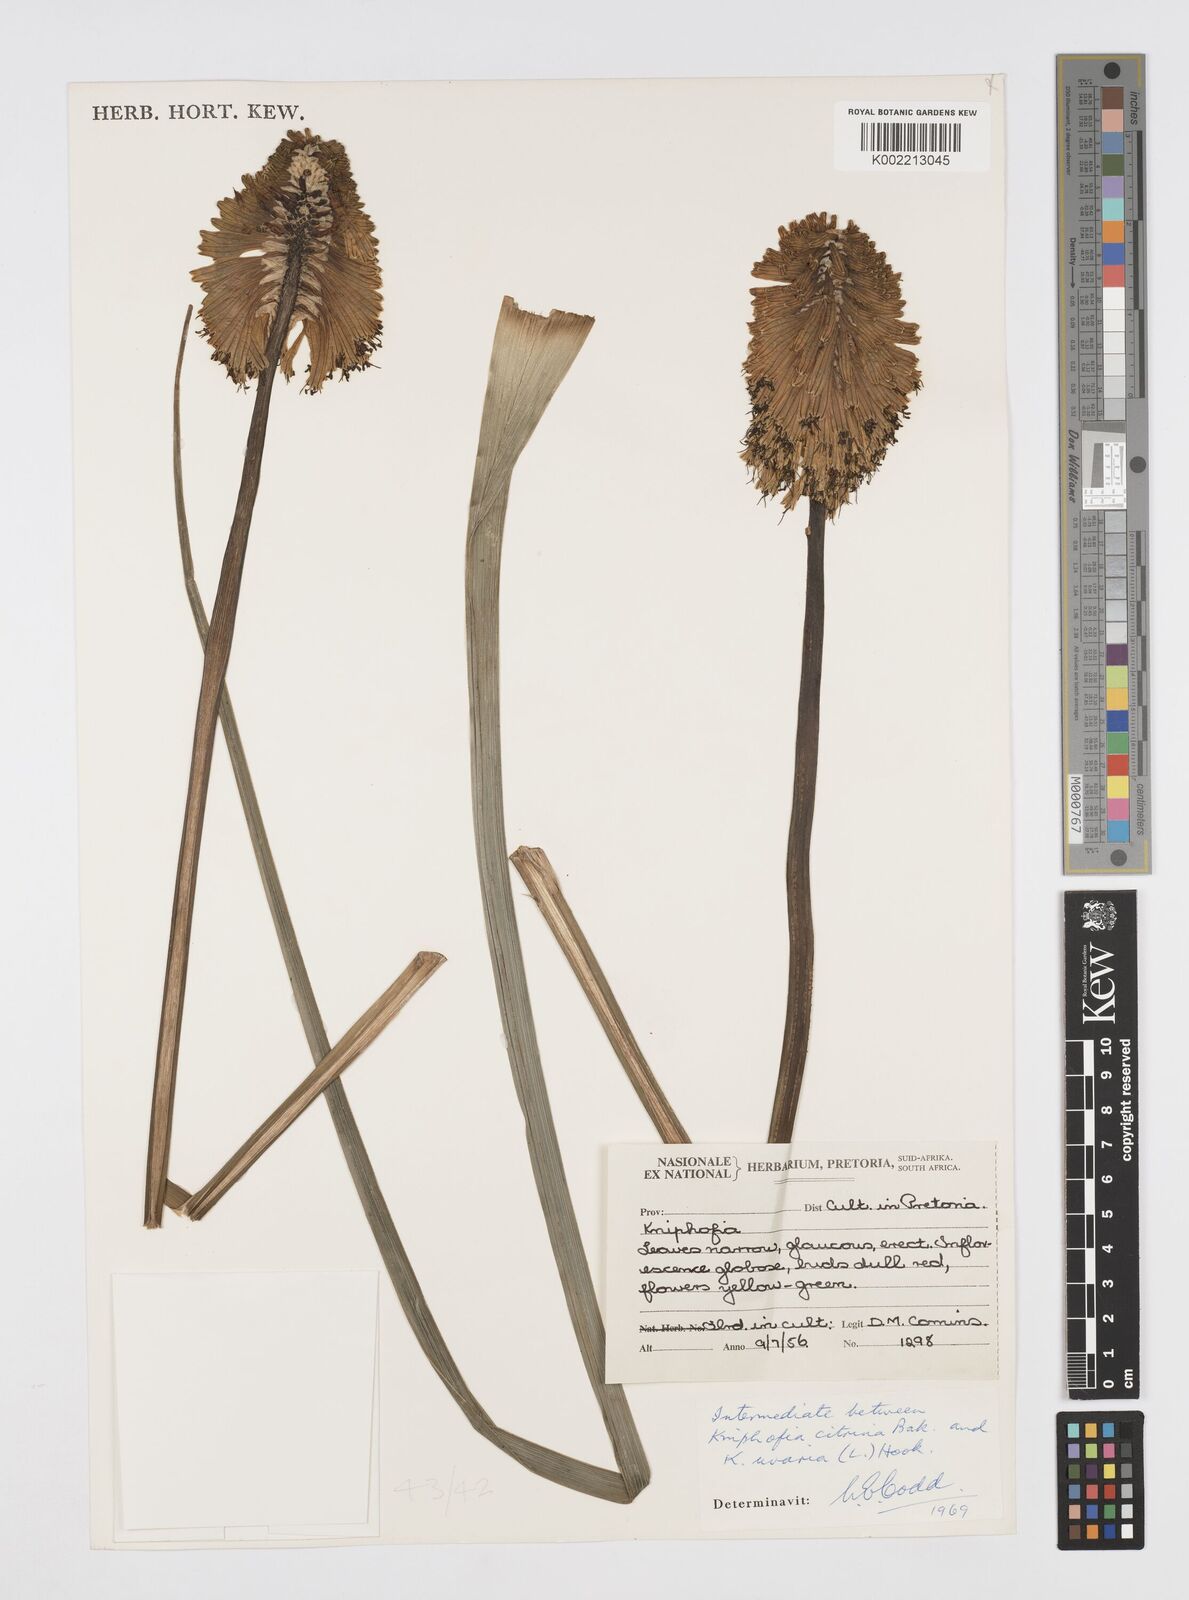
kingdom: Plantae
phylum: Tracheophyta
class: Liliopsida
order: Asparagales
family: Asphodelaceae
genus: Kniphofia
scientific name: Kniphofia citrina
